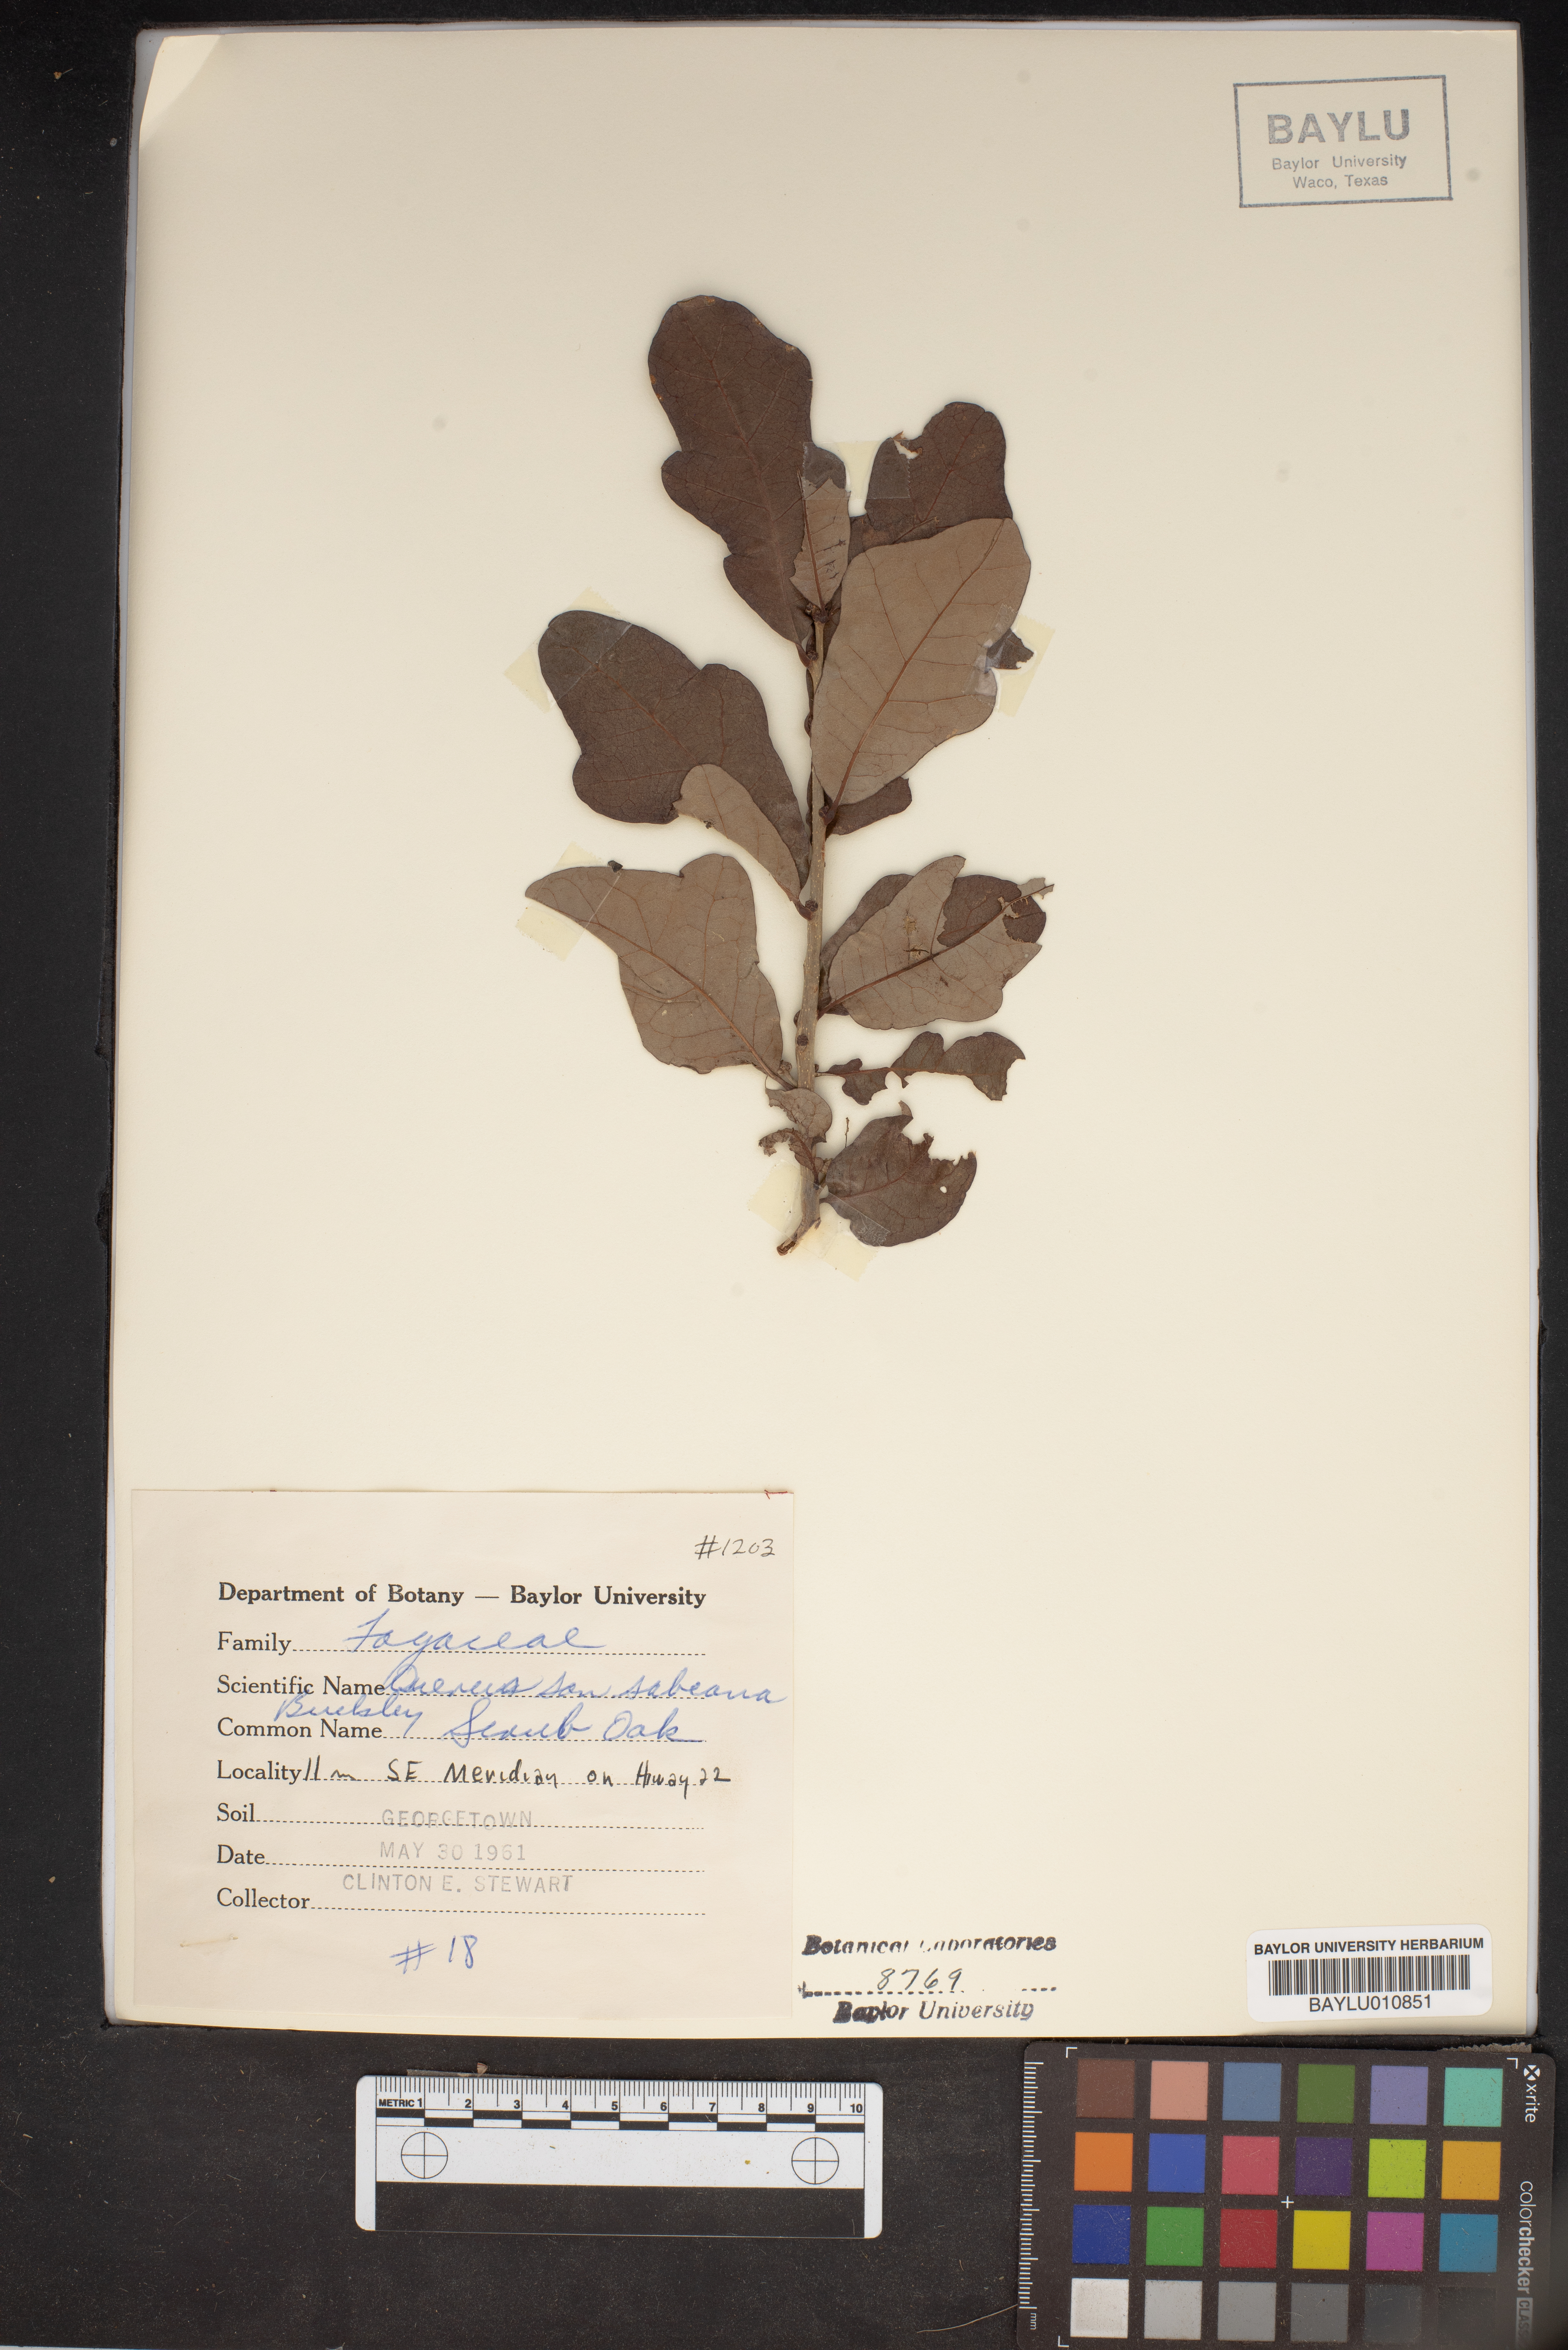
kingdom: Plantae
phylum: Tracheophyta
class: Magnoliopsida
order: Fagales
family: Fagaceae
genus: Quercus
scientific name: Quercus sinuata
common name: Durand oak
